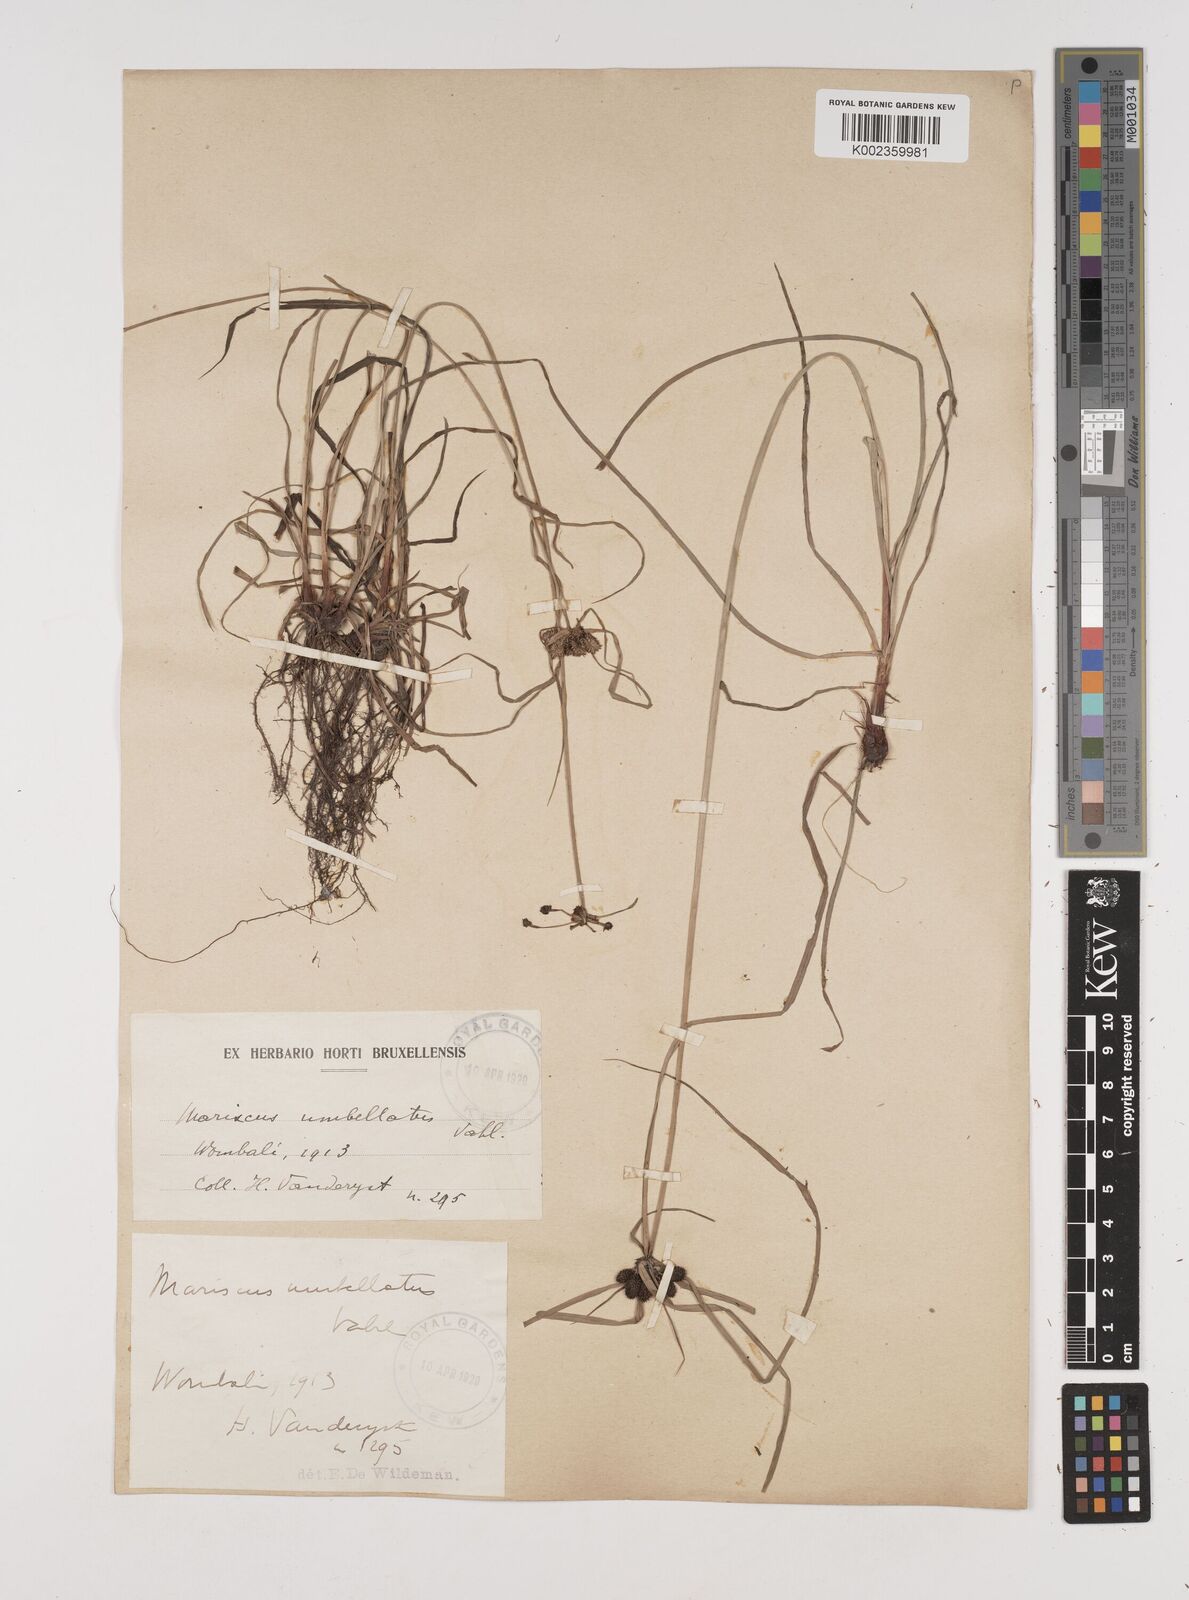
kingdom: Plantae
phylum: Tracheophyta
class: Liliopsida
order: Poales
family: Cyperaceae
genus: Cyperus
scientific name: Cyperus cyperoides
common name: Pacific island flat sedge
